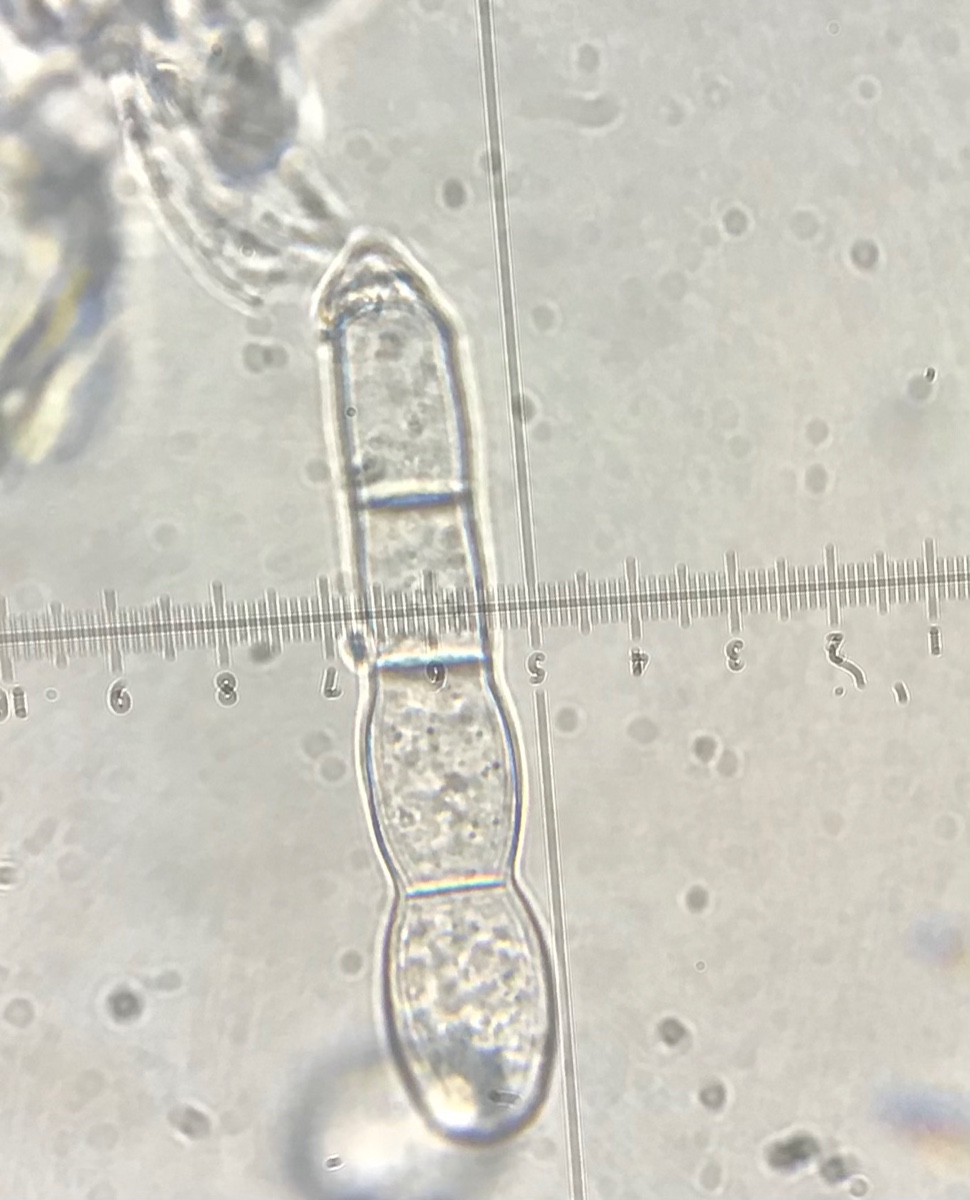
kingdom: Fungi
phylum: Ascomycota
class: Leotiomycetes
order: Helotiales
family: Erysiphaceae
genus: Golovinomyces
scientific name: Golovinomyces cichoracearum
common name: kurvblomst-meldug
